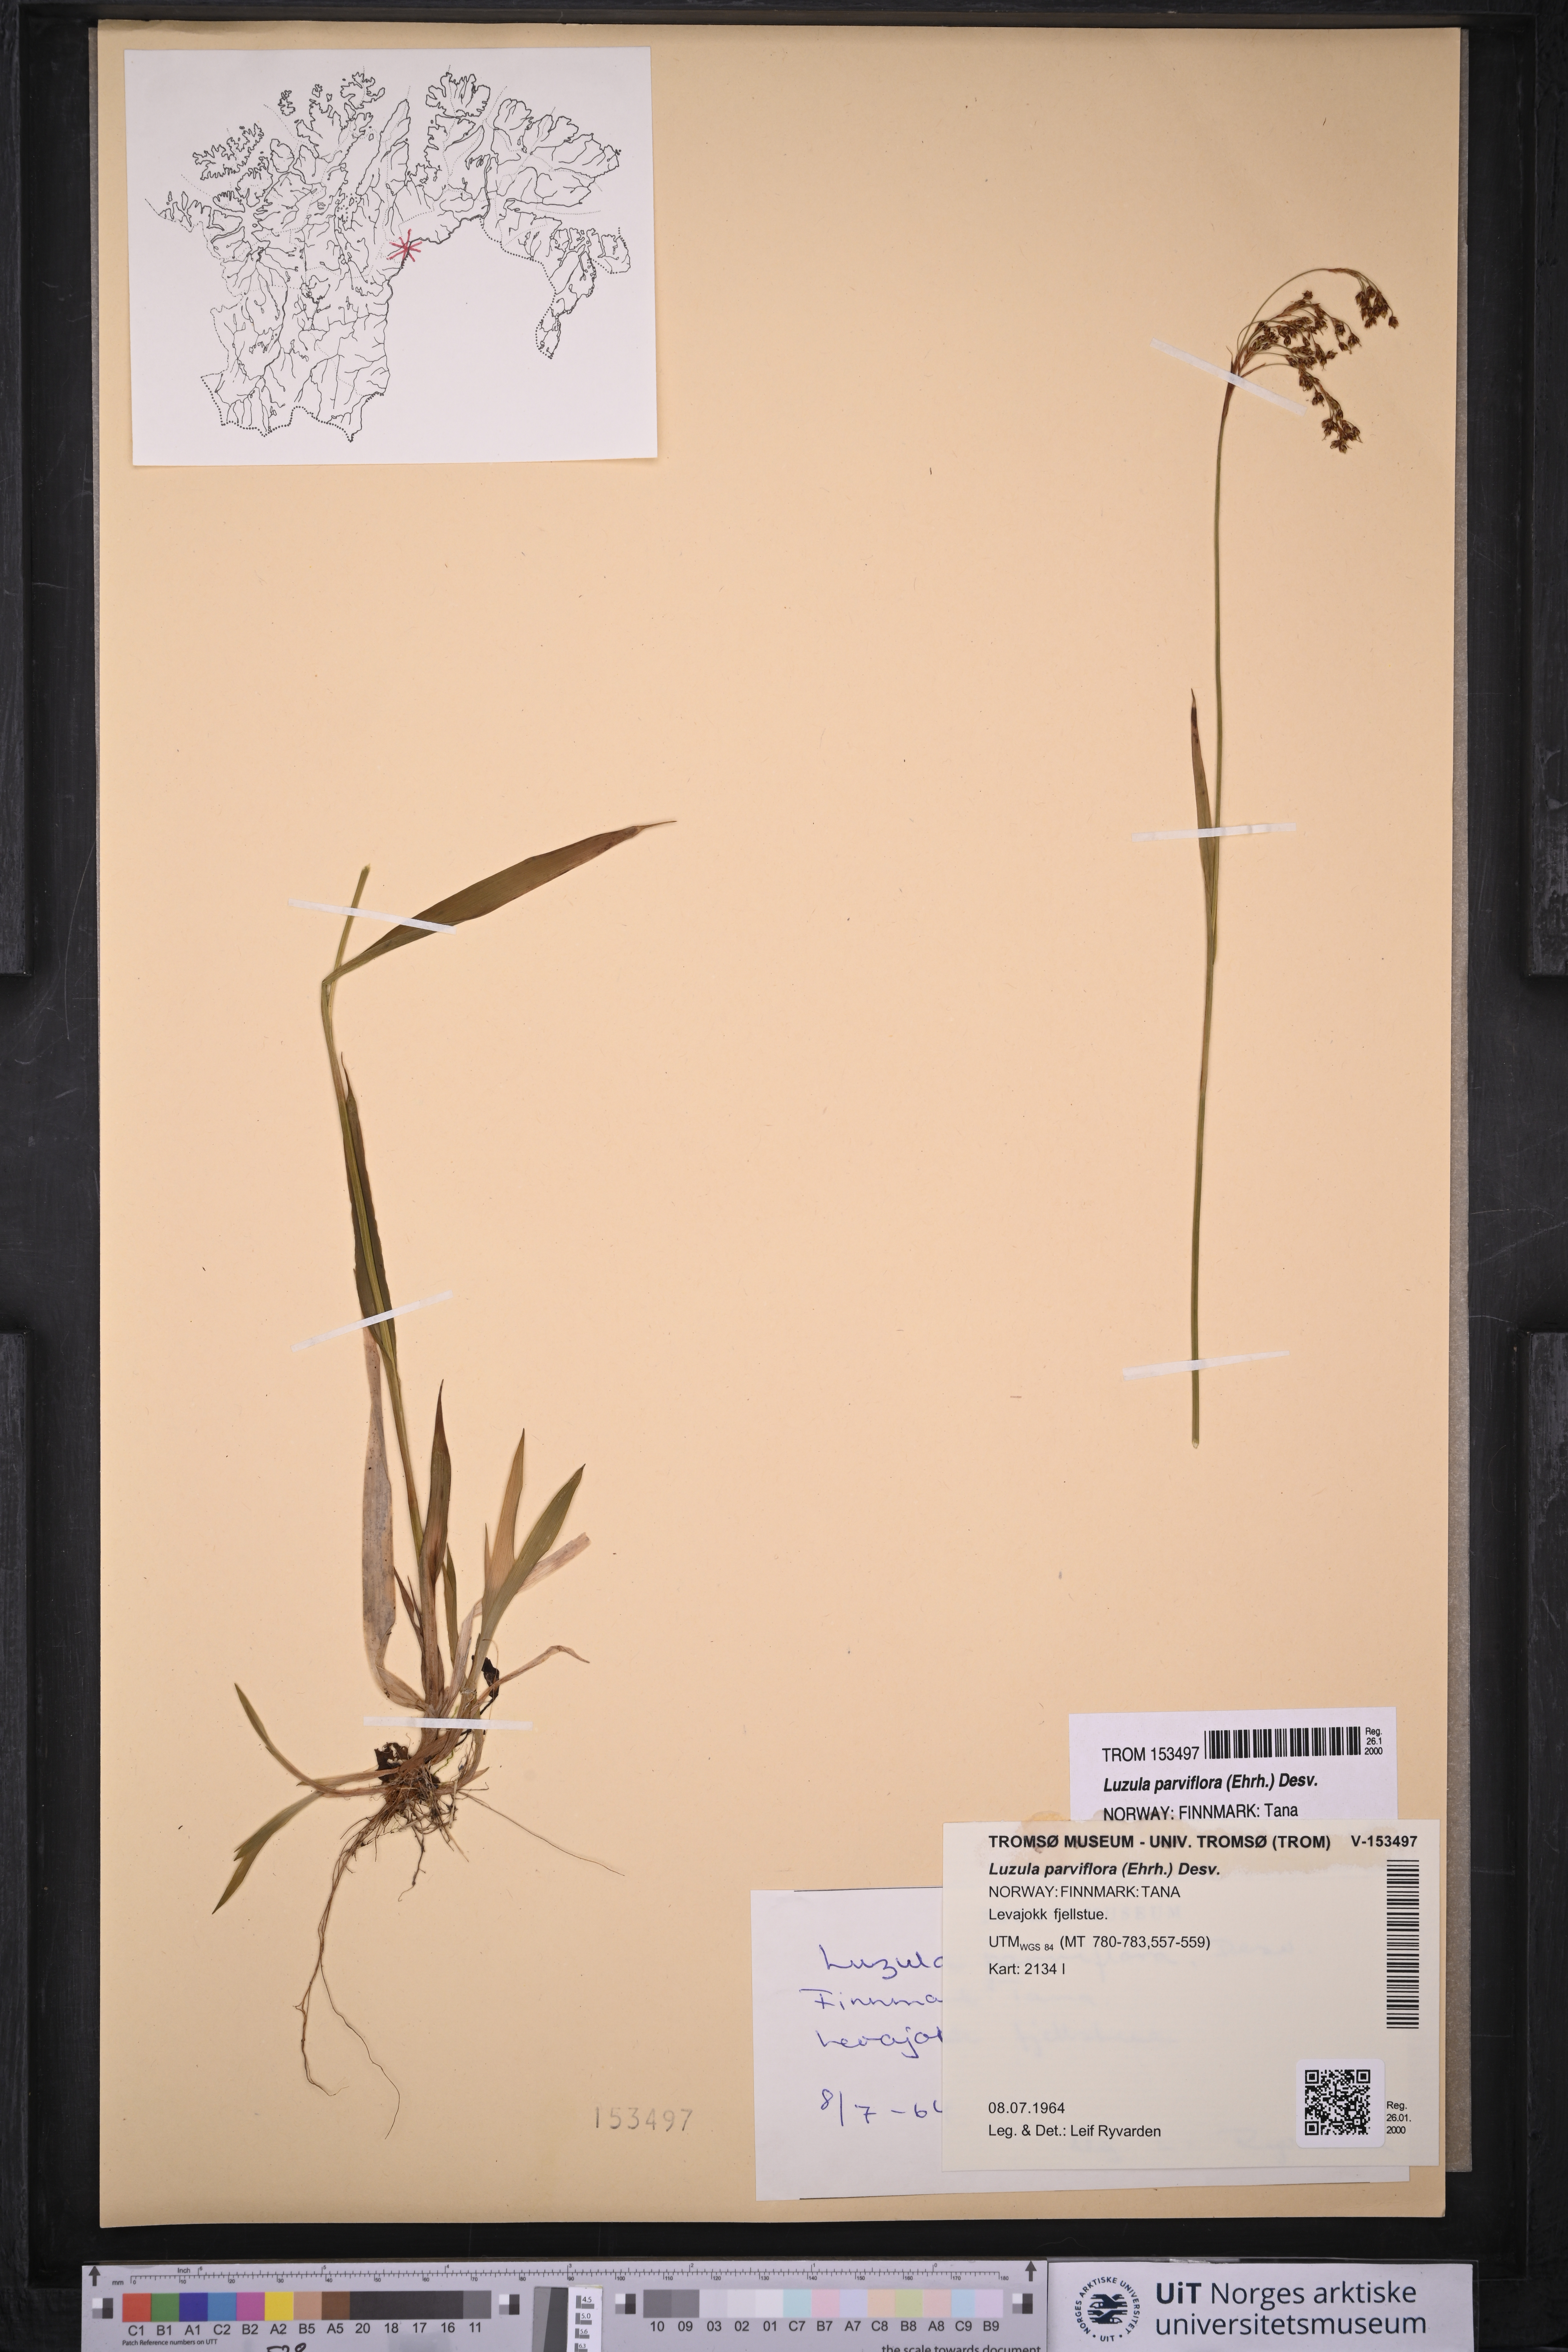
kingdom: Plantae
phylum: Tracheophyta
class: Liliopsida
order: Poales
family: Juncaceae
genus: Luzula
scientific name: Luzula parviflora
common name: Millet woodrush
